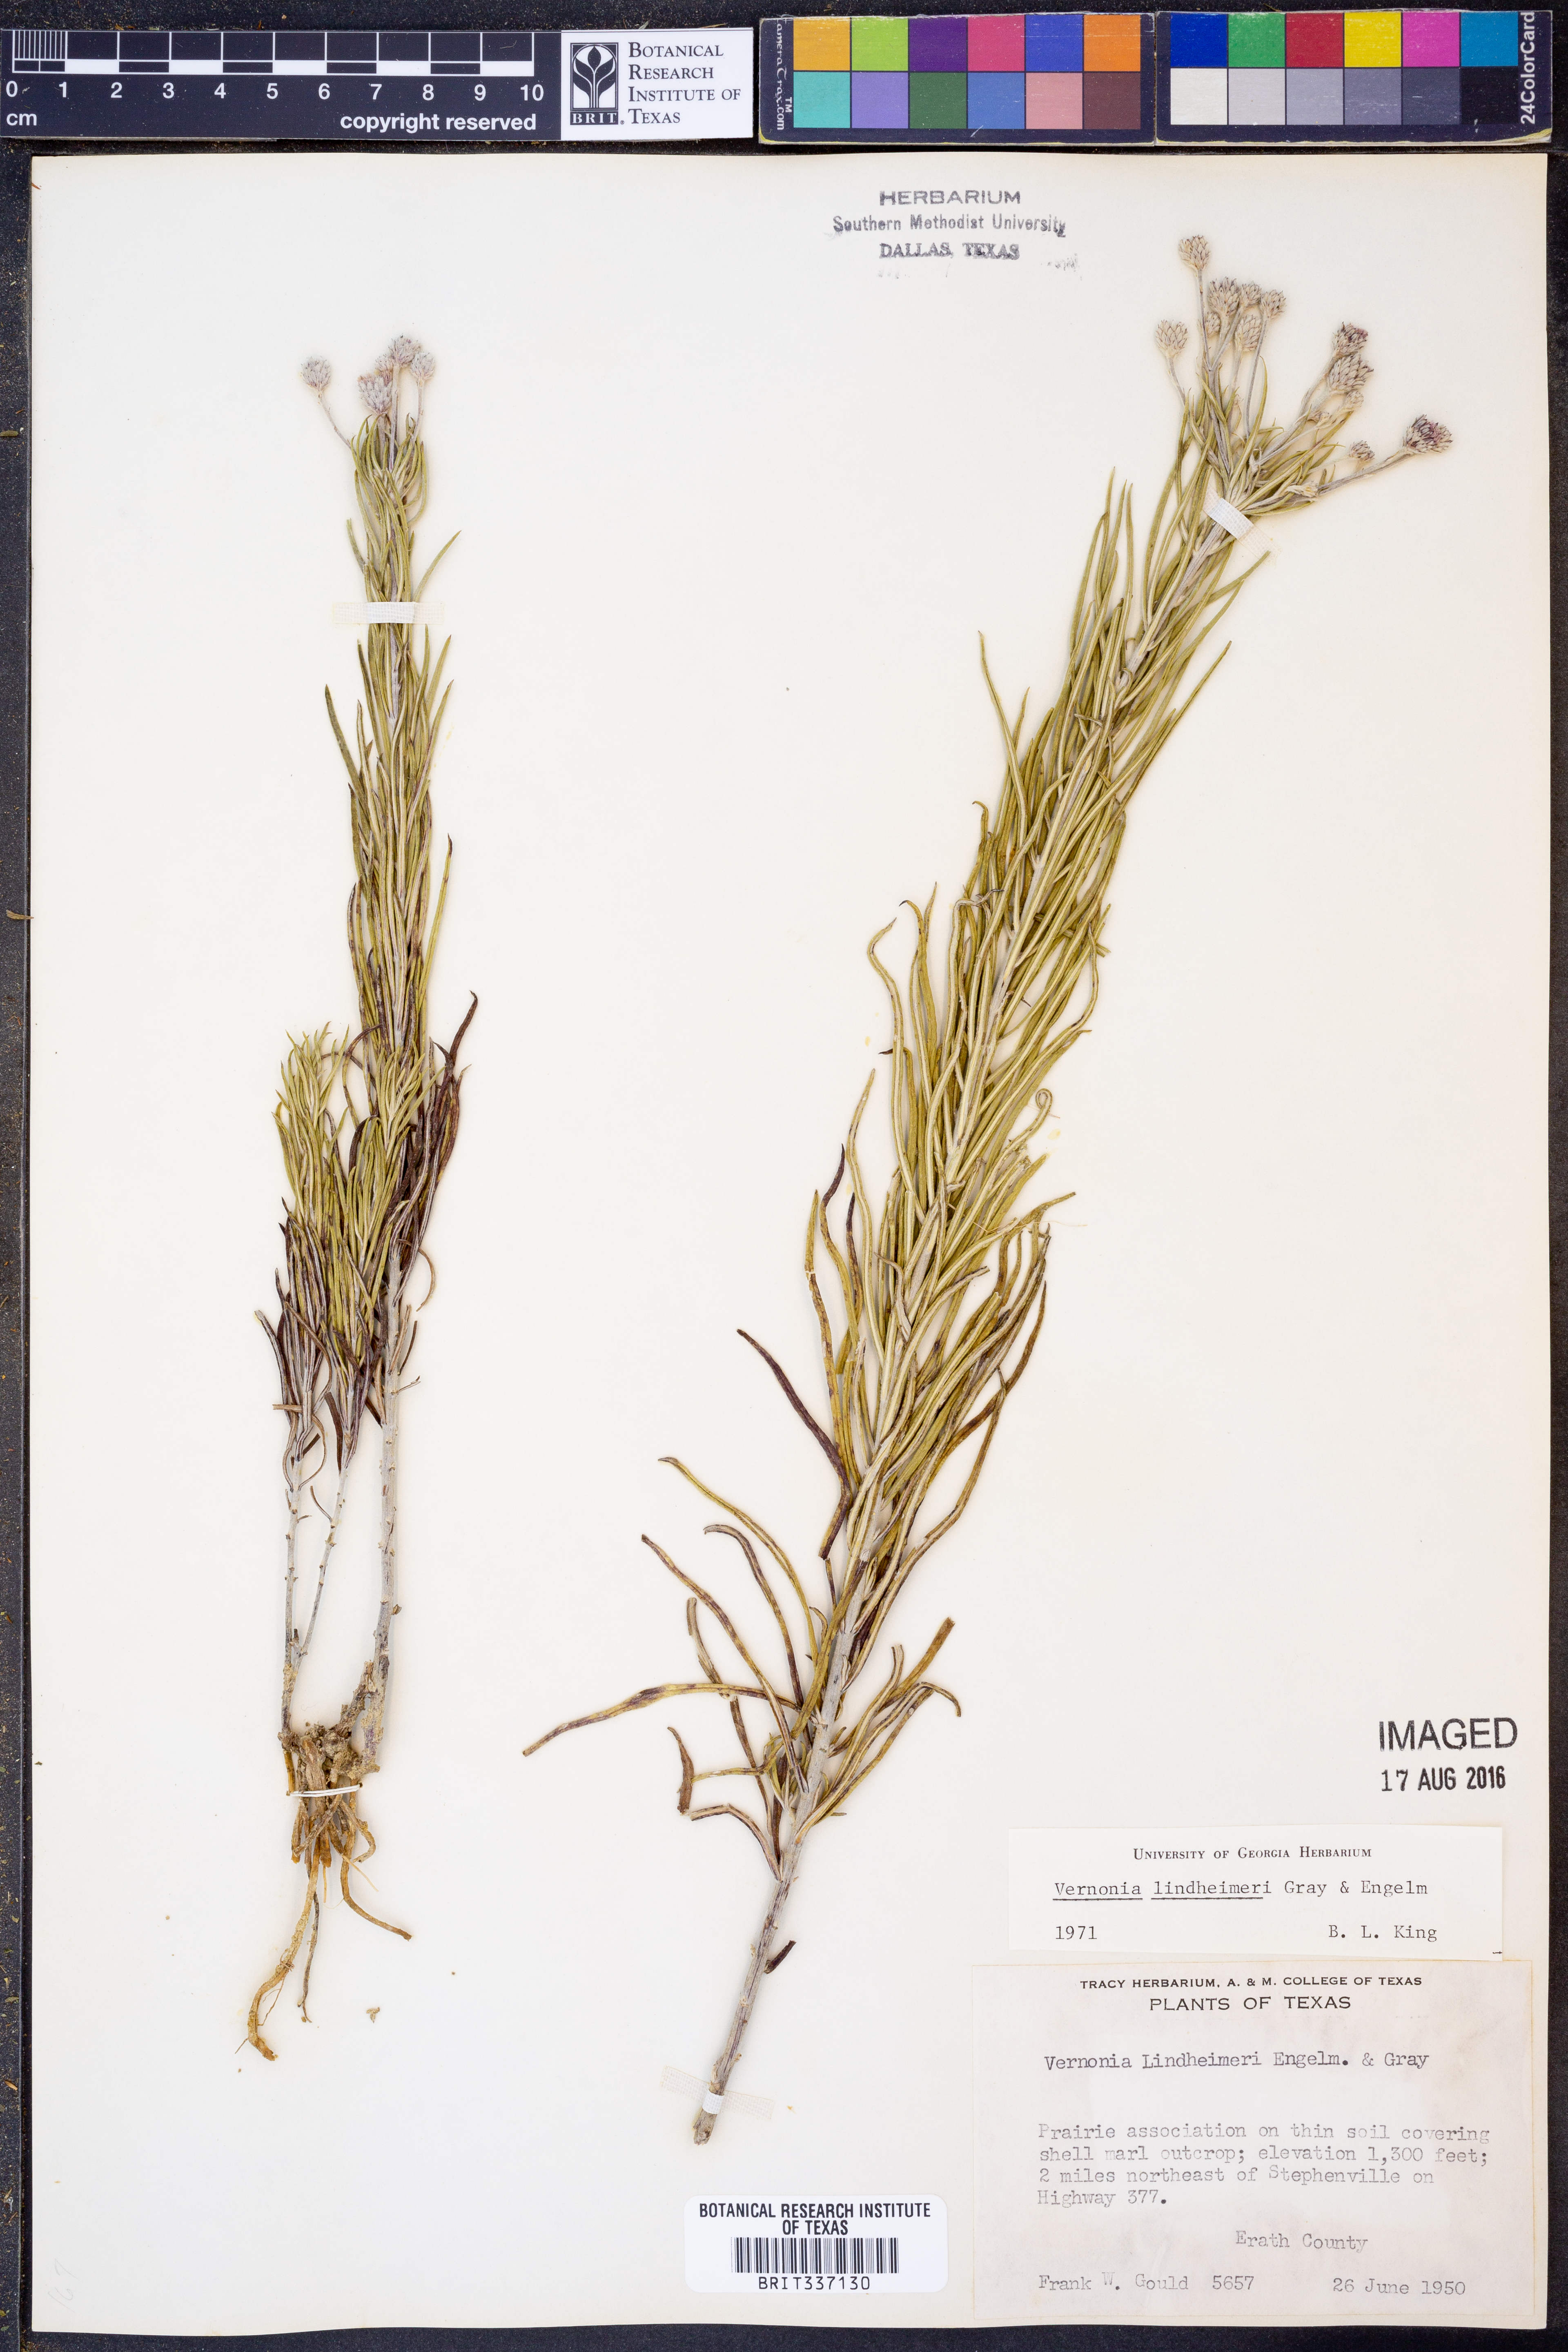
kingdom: Plantae
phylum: Tracheophyta
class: Magnoliopsida
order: Asterales
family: Asteraceae
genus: Vernonia
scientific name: Vernonia lindheimeri
